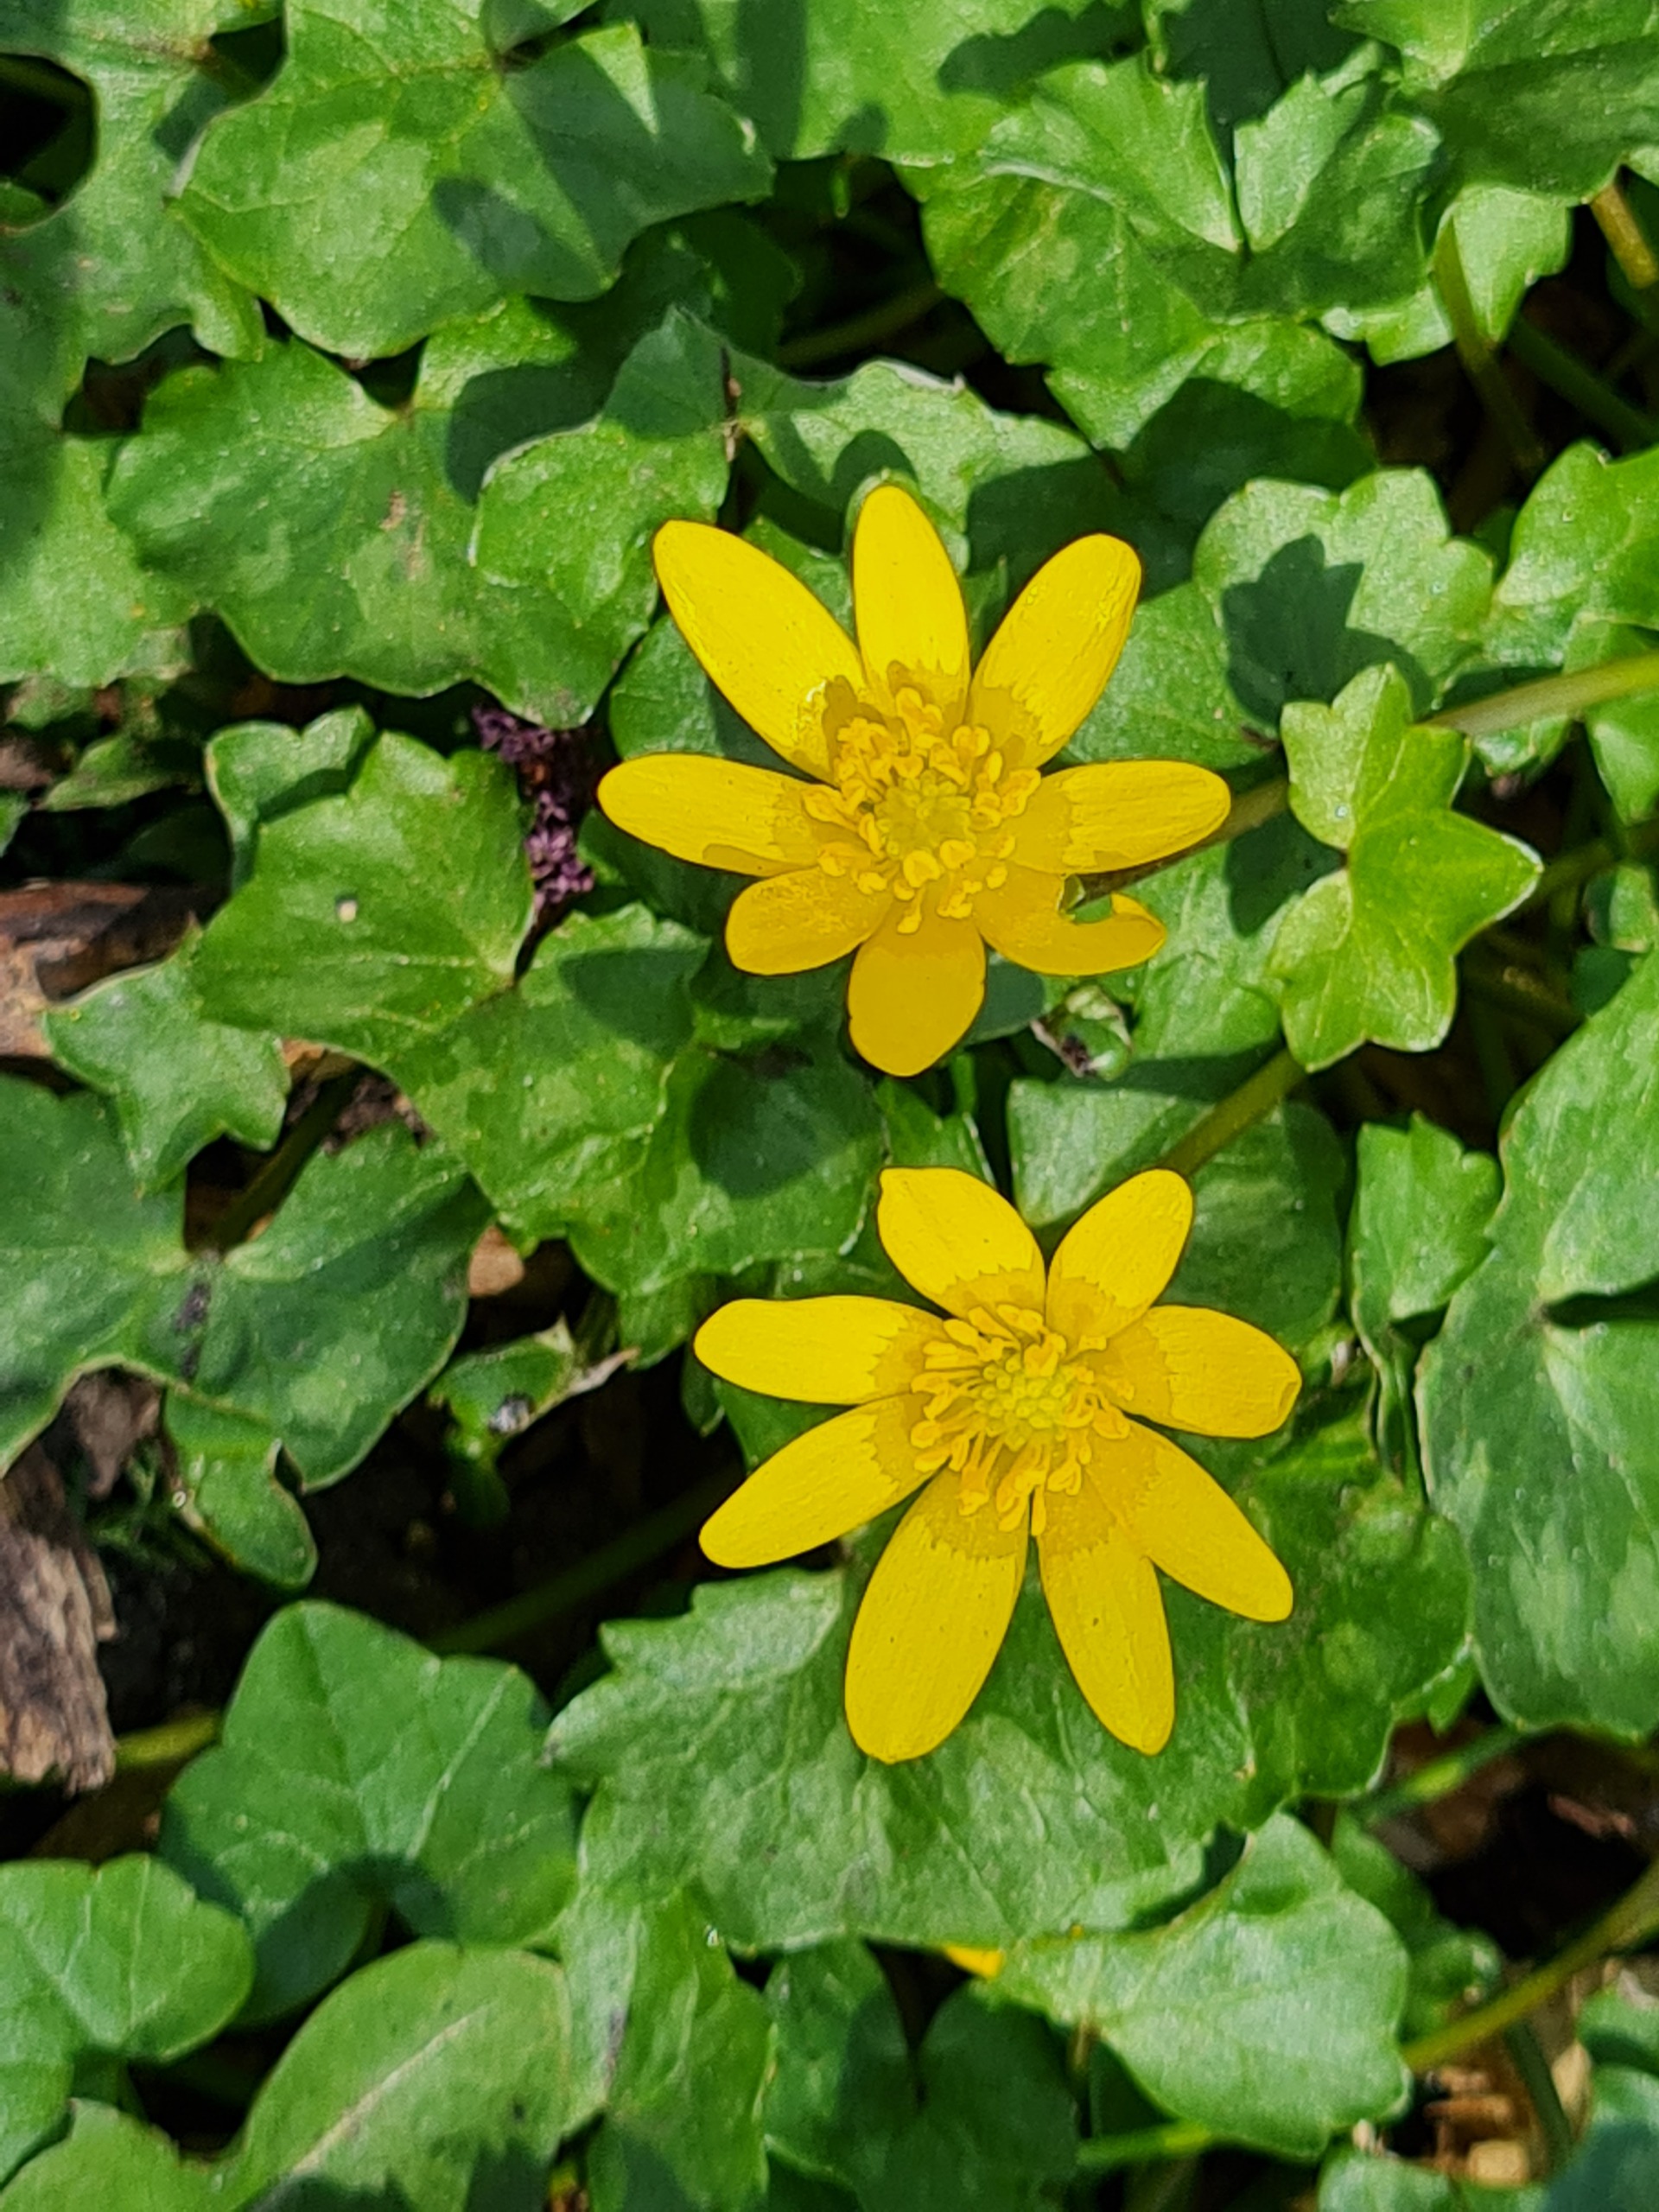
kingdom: Plantae
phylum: Tracheophyta
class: Magnoliopsida
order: Ranunculales
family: Ranunculaceae
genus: Ficaria
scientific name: Ficaria verna
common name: Vorterod
